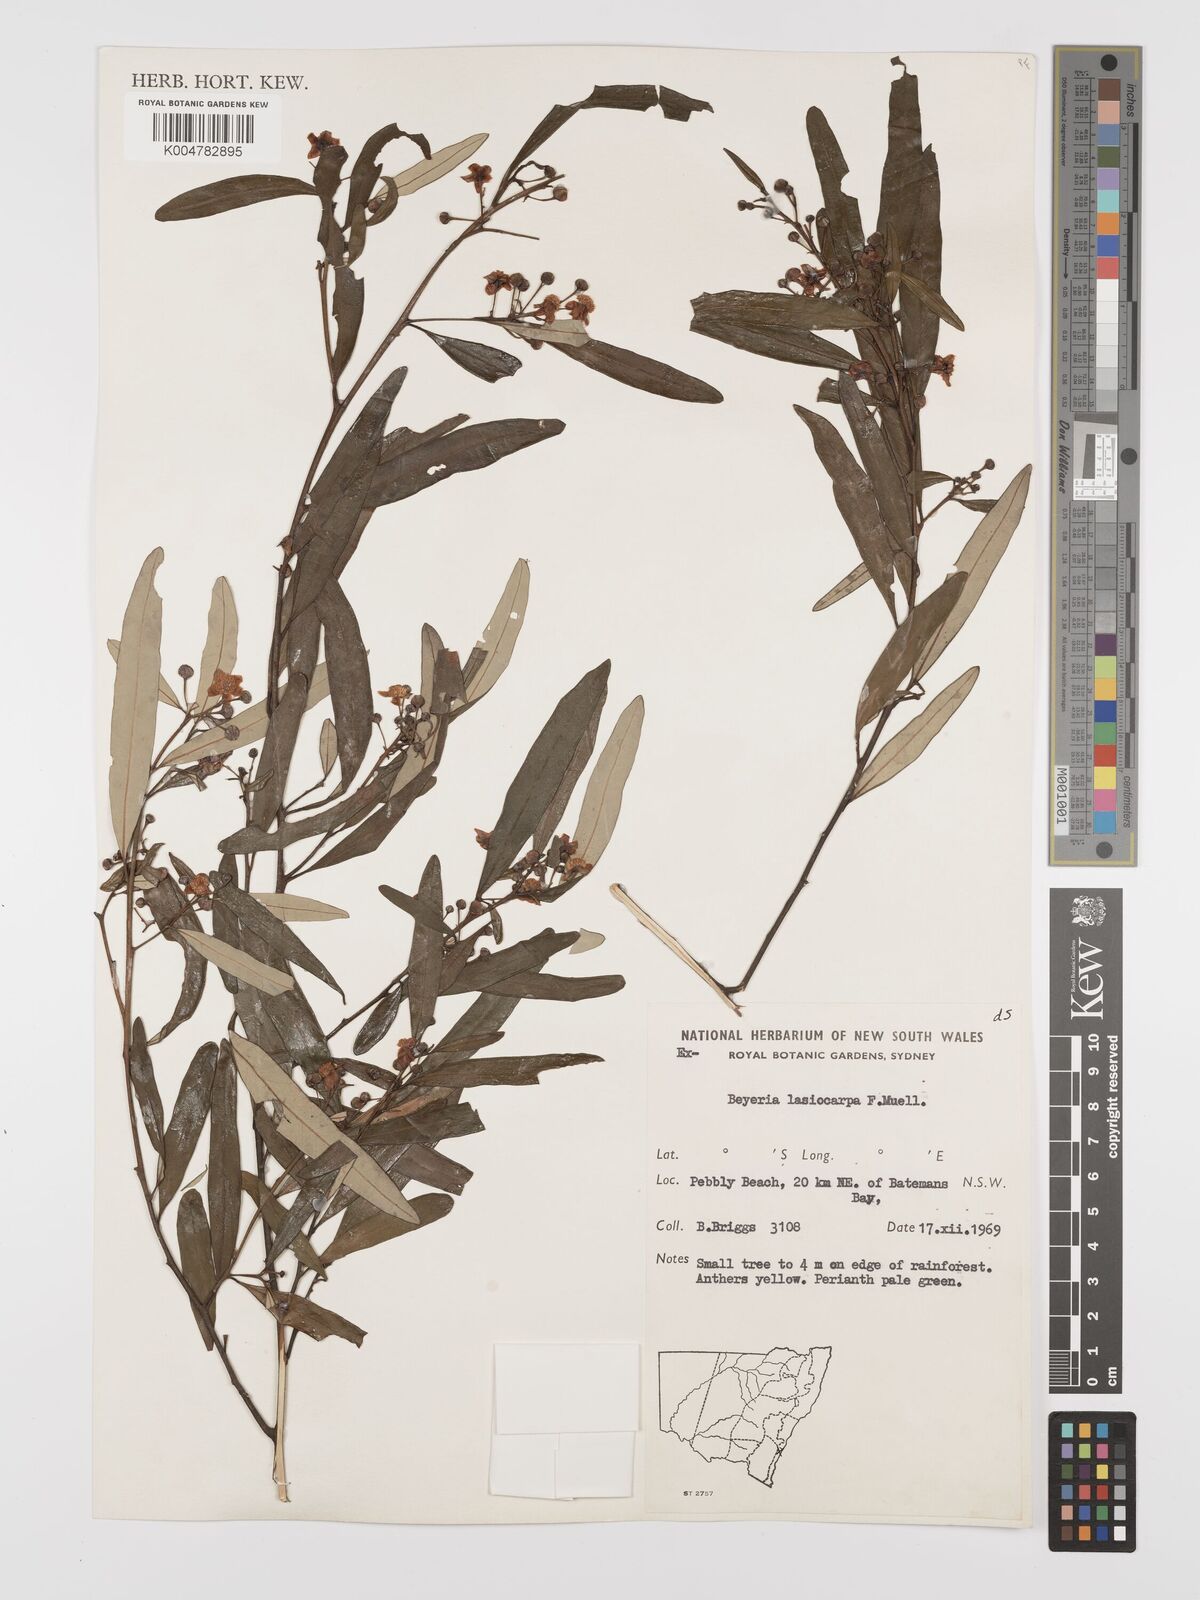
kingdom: Plantae
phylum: Tracheophyta
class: Magnoliopsida
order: Malpighiales
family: Euphorbiaceae
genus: Beyeria
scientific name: Beyeria lasiocarpa
